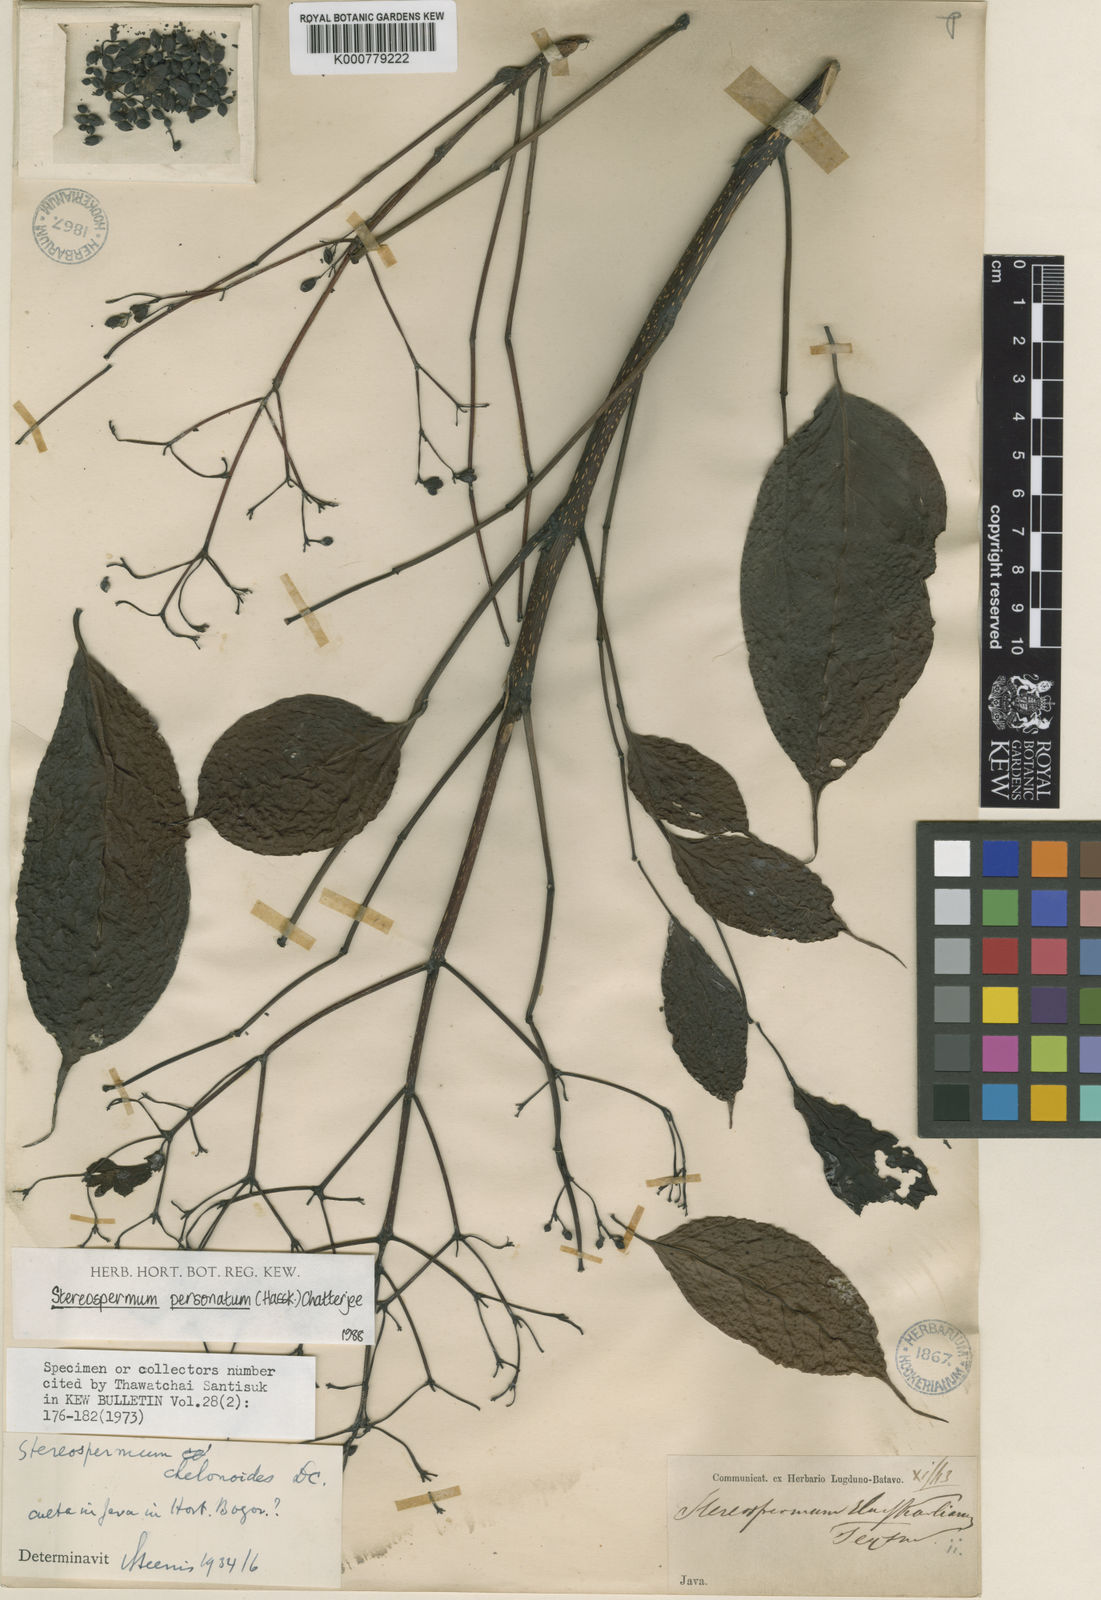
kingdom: Plantae
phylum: Tracheophyta
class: Magnoliopsida
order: Lamiales
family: Bignoniaceae
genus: Stereospermum
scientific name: Stereospermum colais
